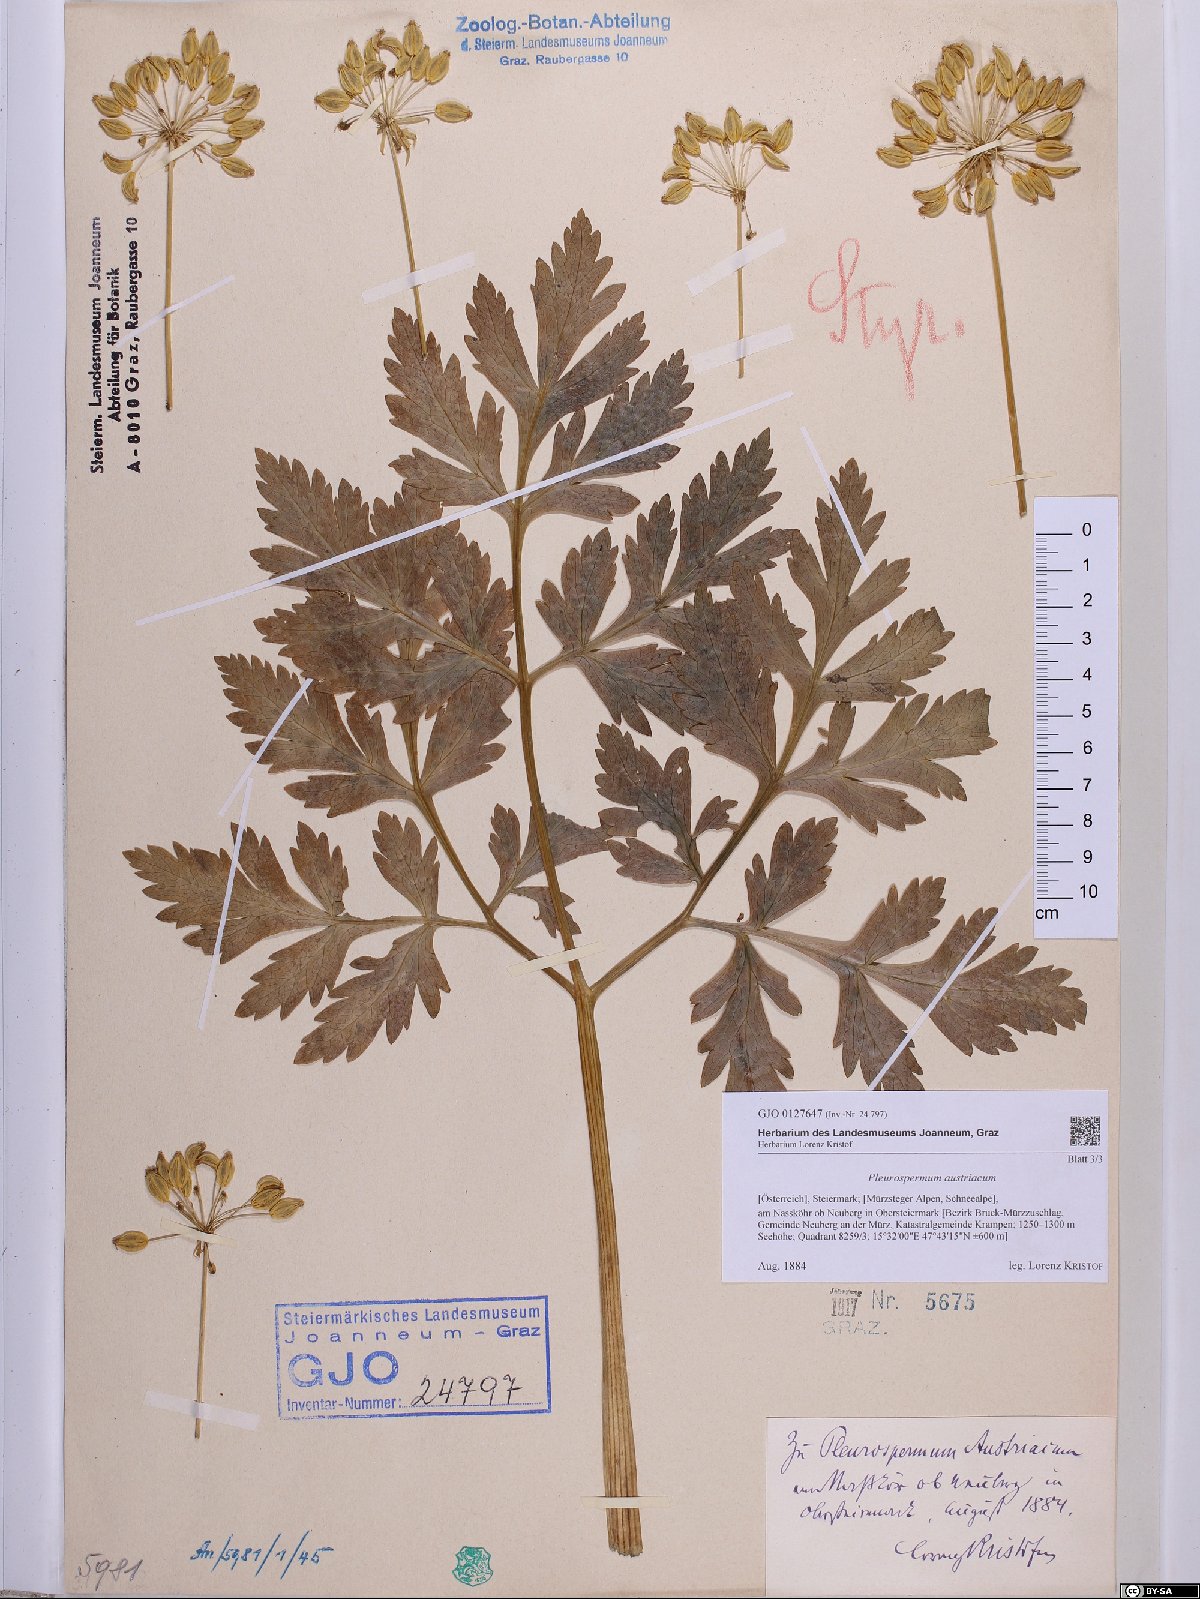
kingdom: Plantae
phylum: Tracheophyta
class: Magnoliopsida
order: Apiales
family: Apiaceae
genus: Pleurospermum
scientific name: Pleurospermum austriacum
